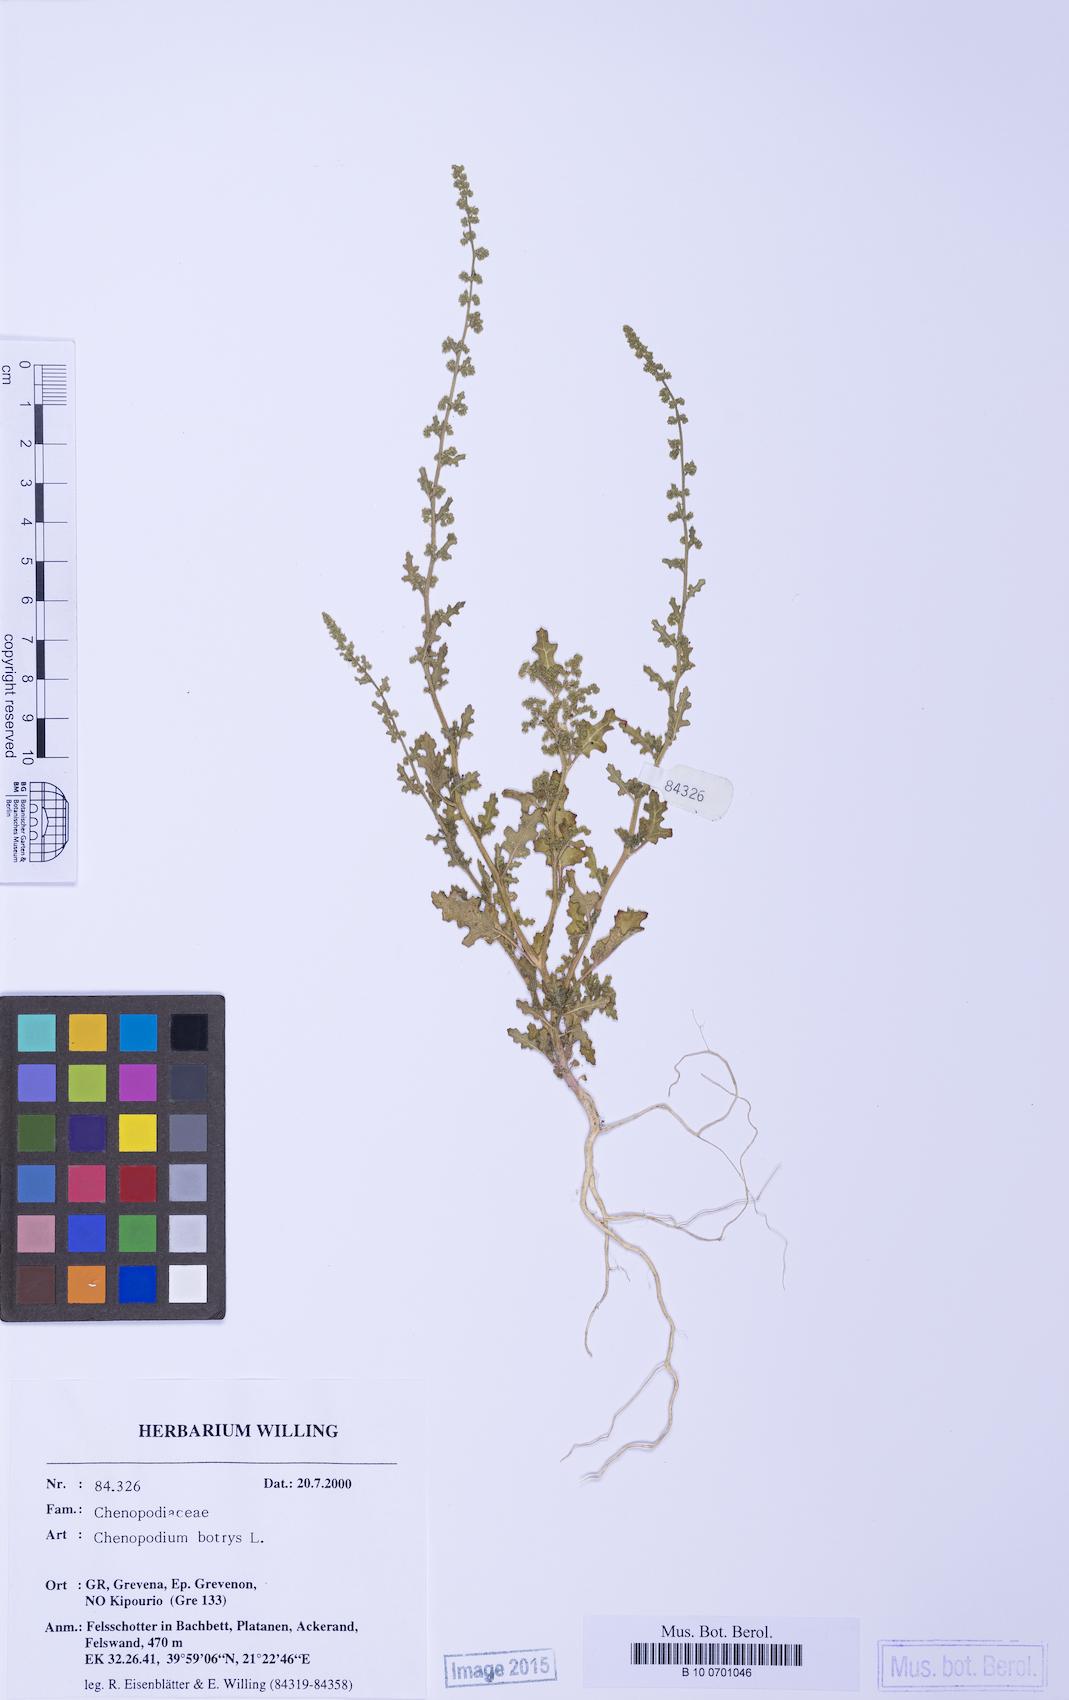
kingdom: Plantae
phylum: Tracheophyta
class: Magnoliopsida
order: Caryophyllales
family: Amaranthaceae
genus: Dysphania
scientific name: Dysphania botrys
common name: Feather-geranium
